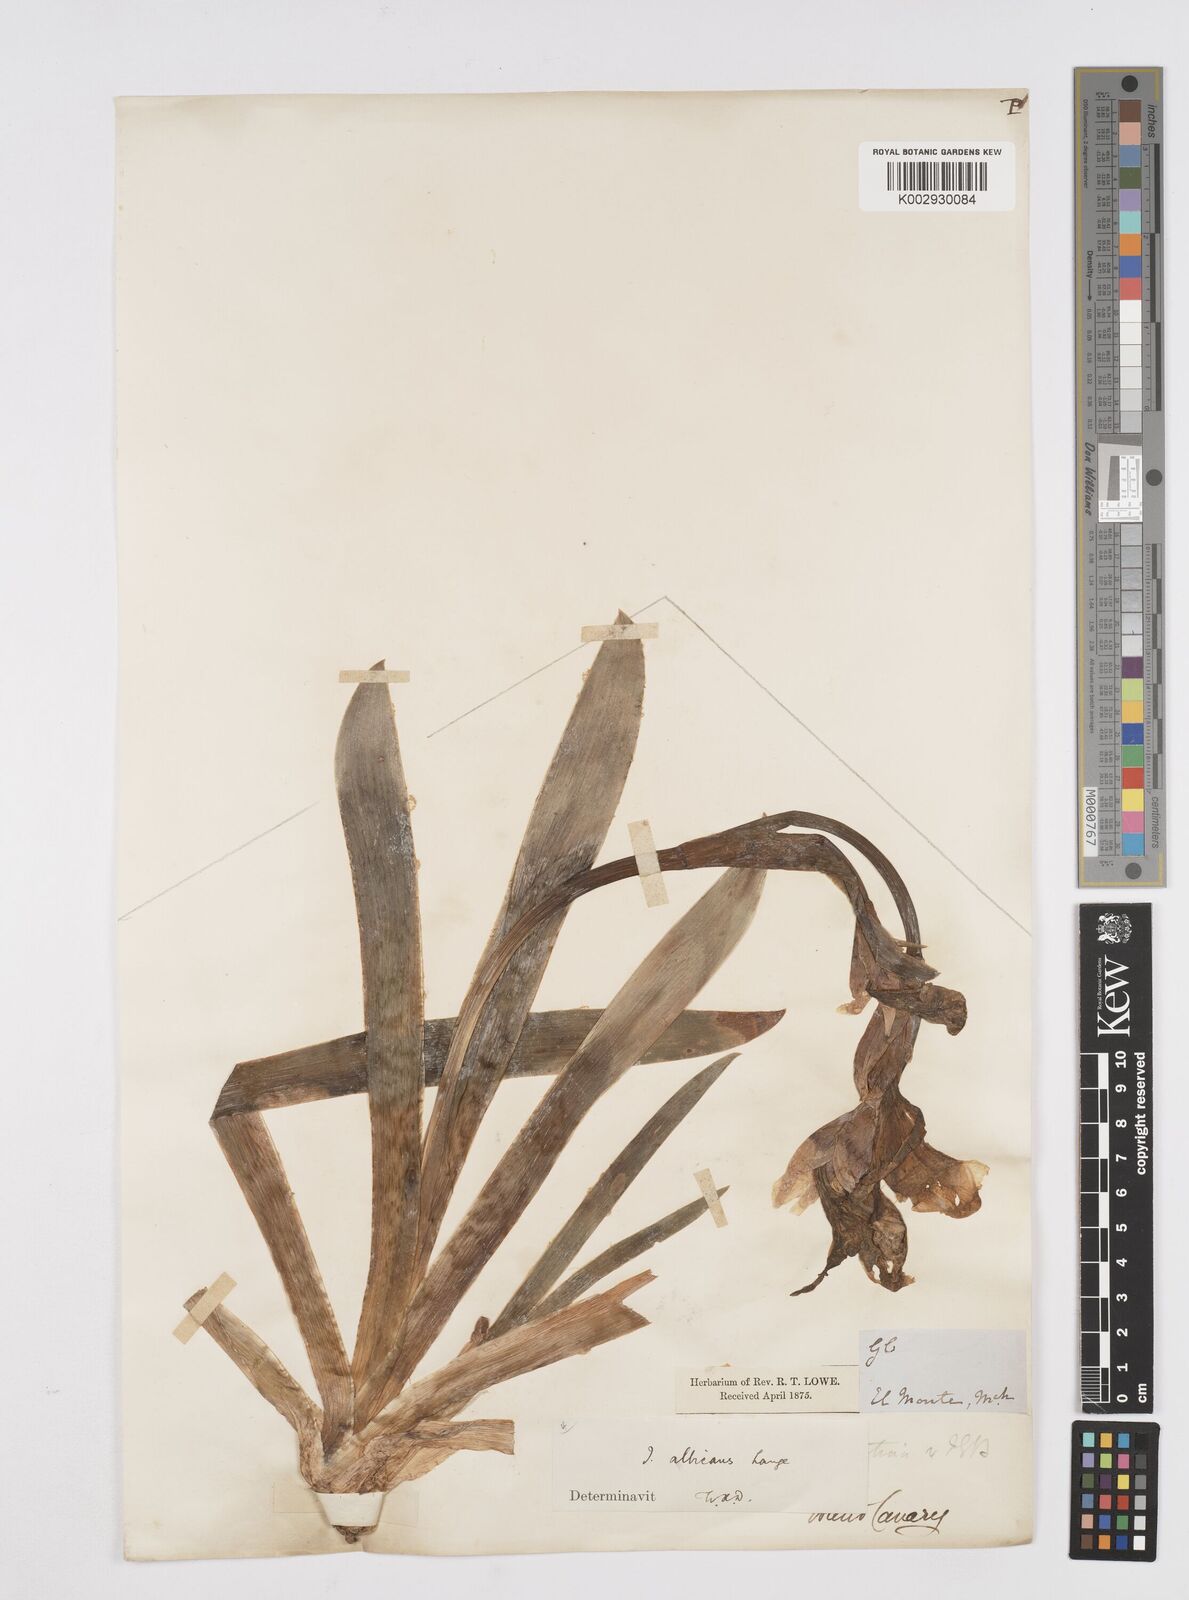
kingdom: Plantae
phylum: Tracheophyta
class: Liliopsida
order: Asparagales
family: Iridaceae
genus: Iris
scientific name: Iris florentina
